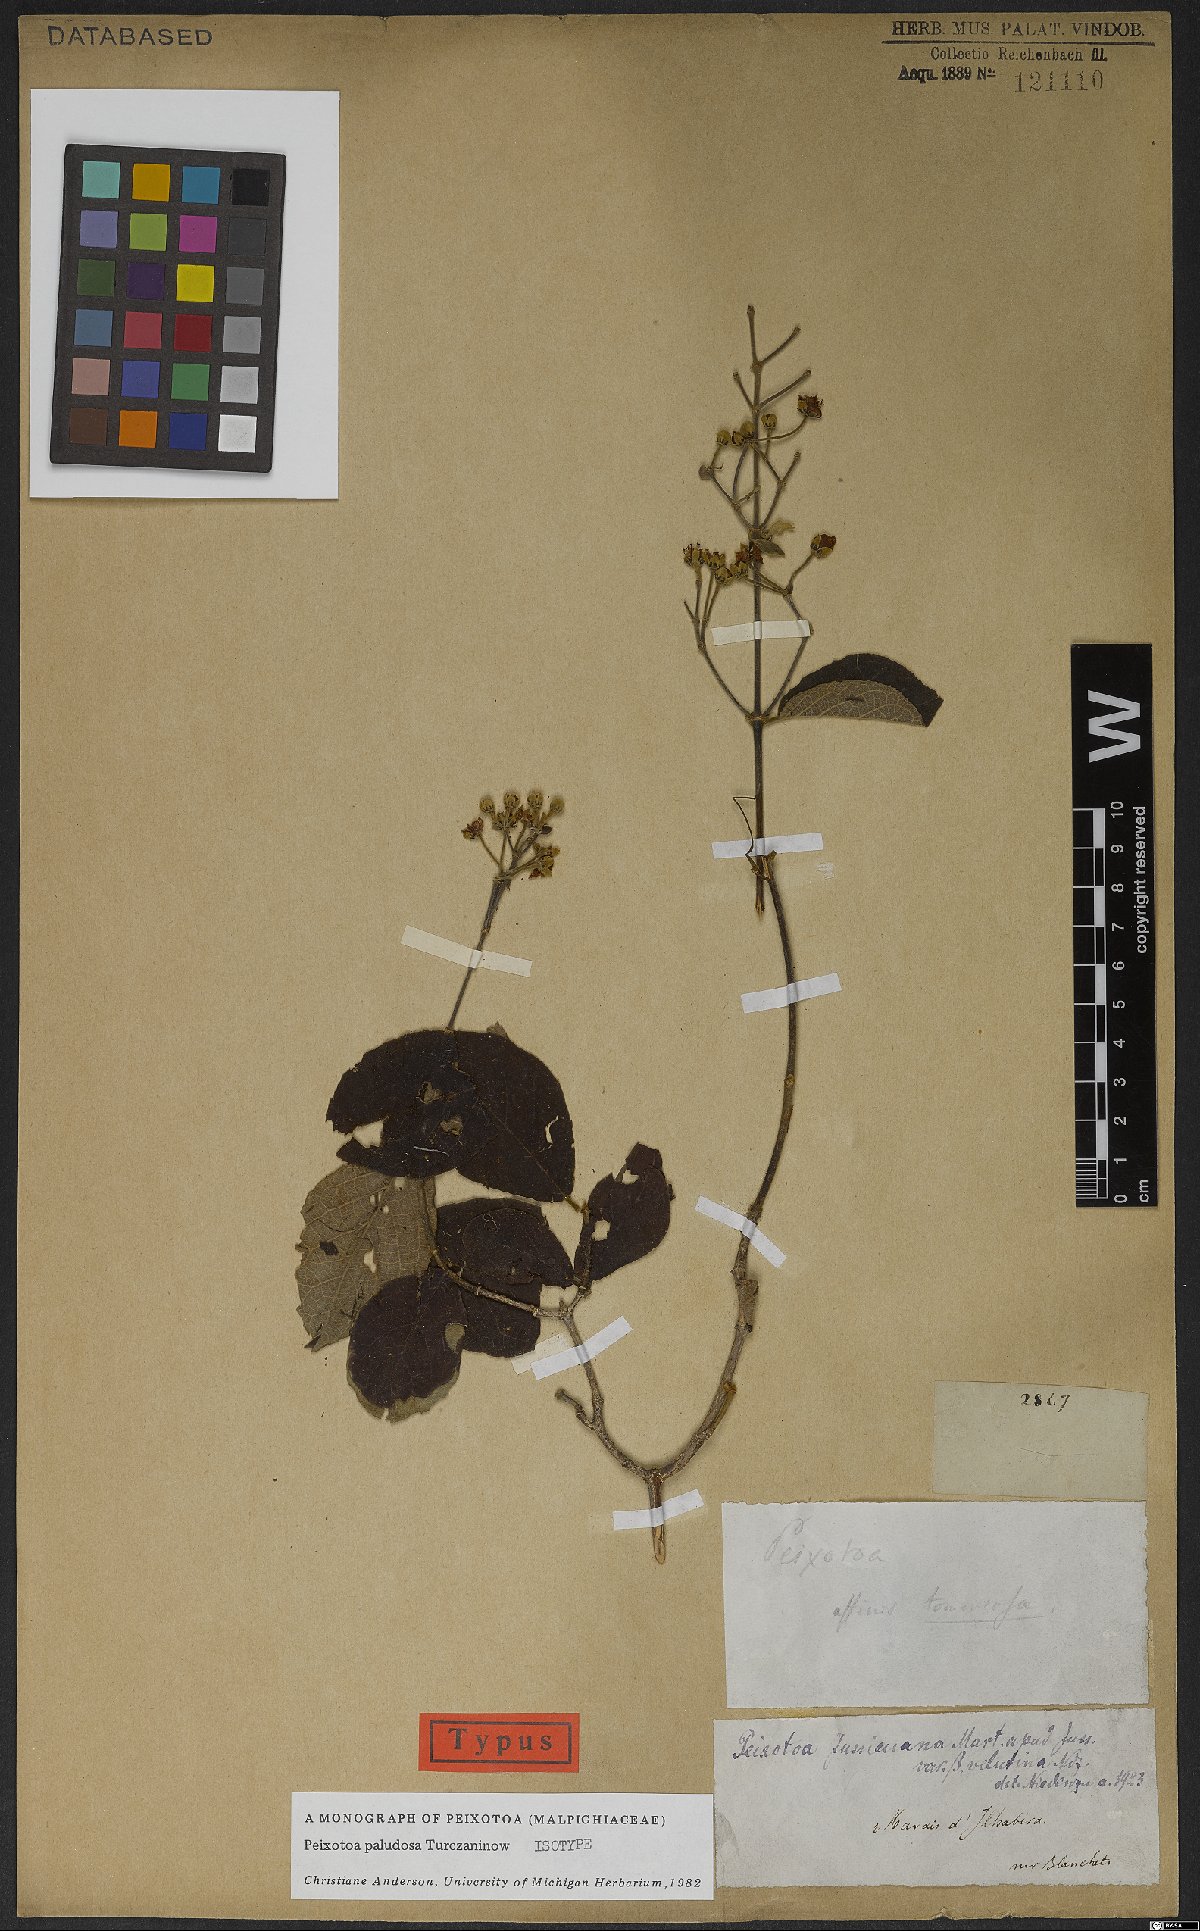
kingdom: Plantae
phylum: Tracheophyta
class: Magnoliopsida
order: Malpighiales
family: Malpighiaceae
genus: Peixotoa
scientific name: Peixotoa paludosa
